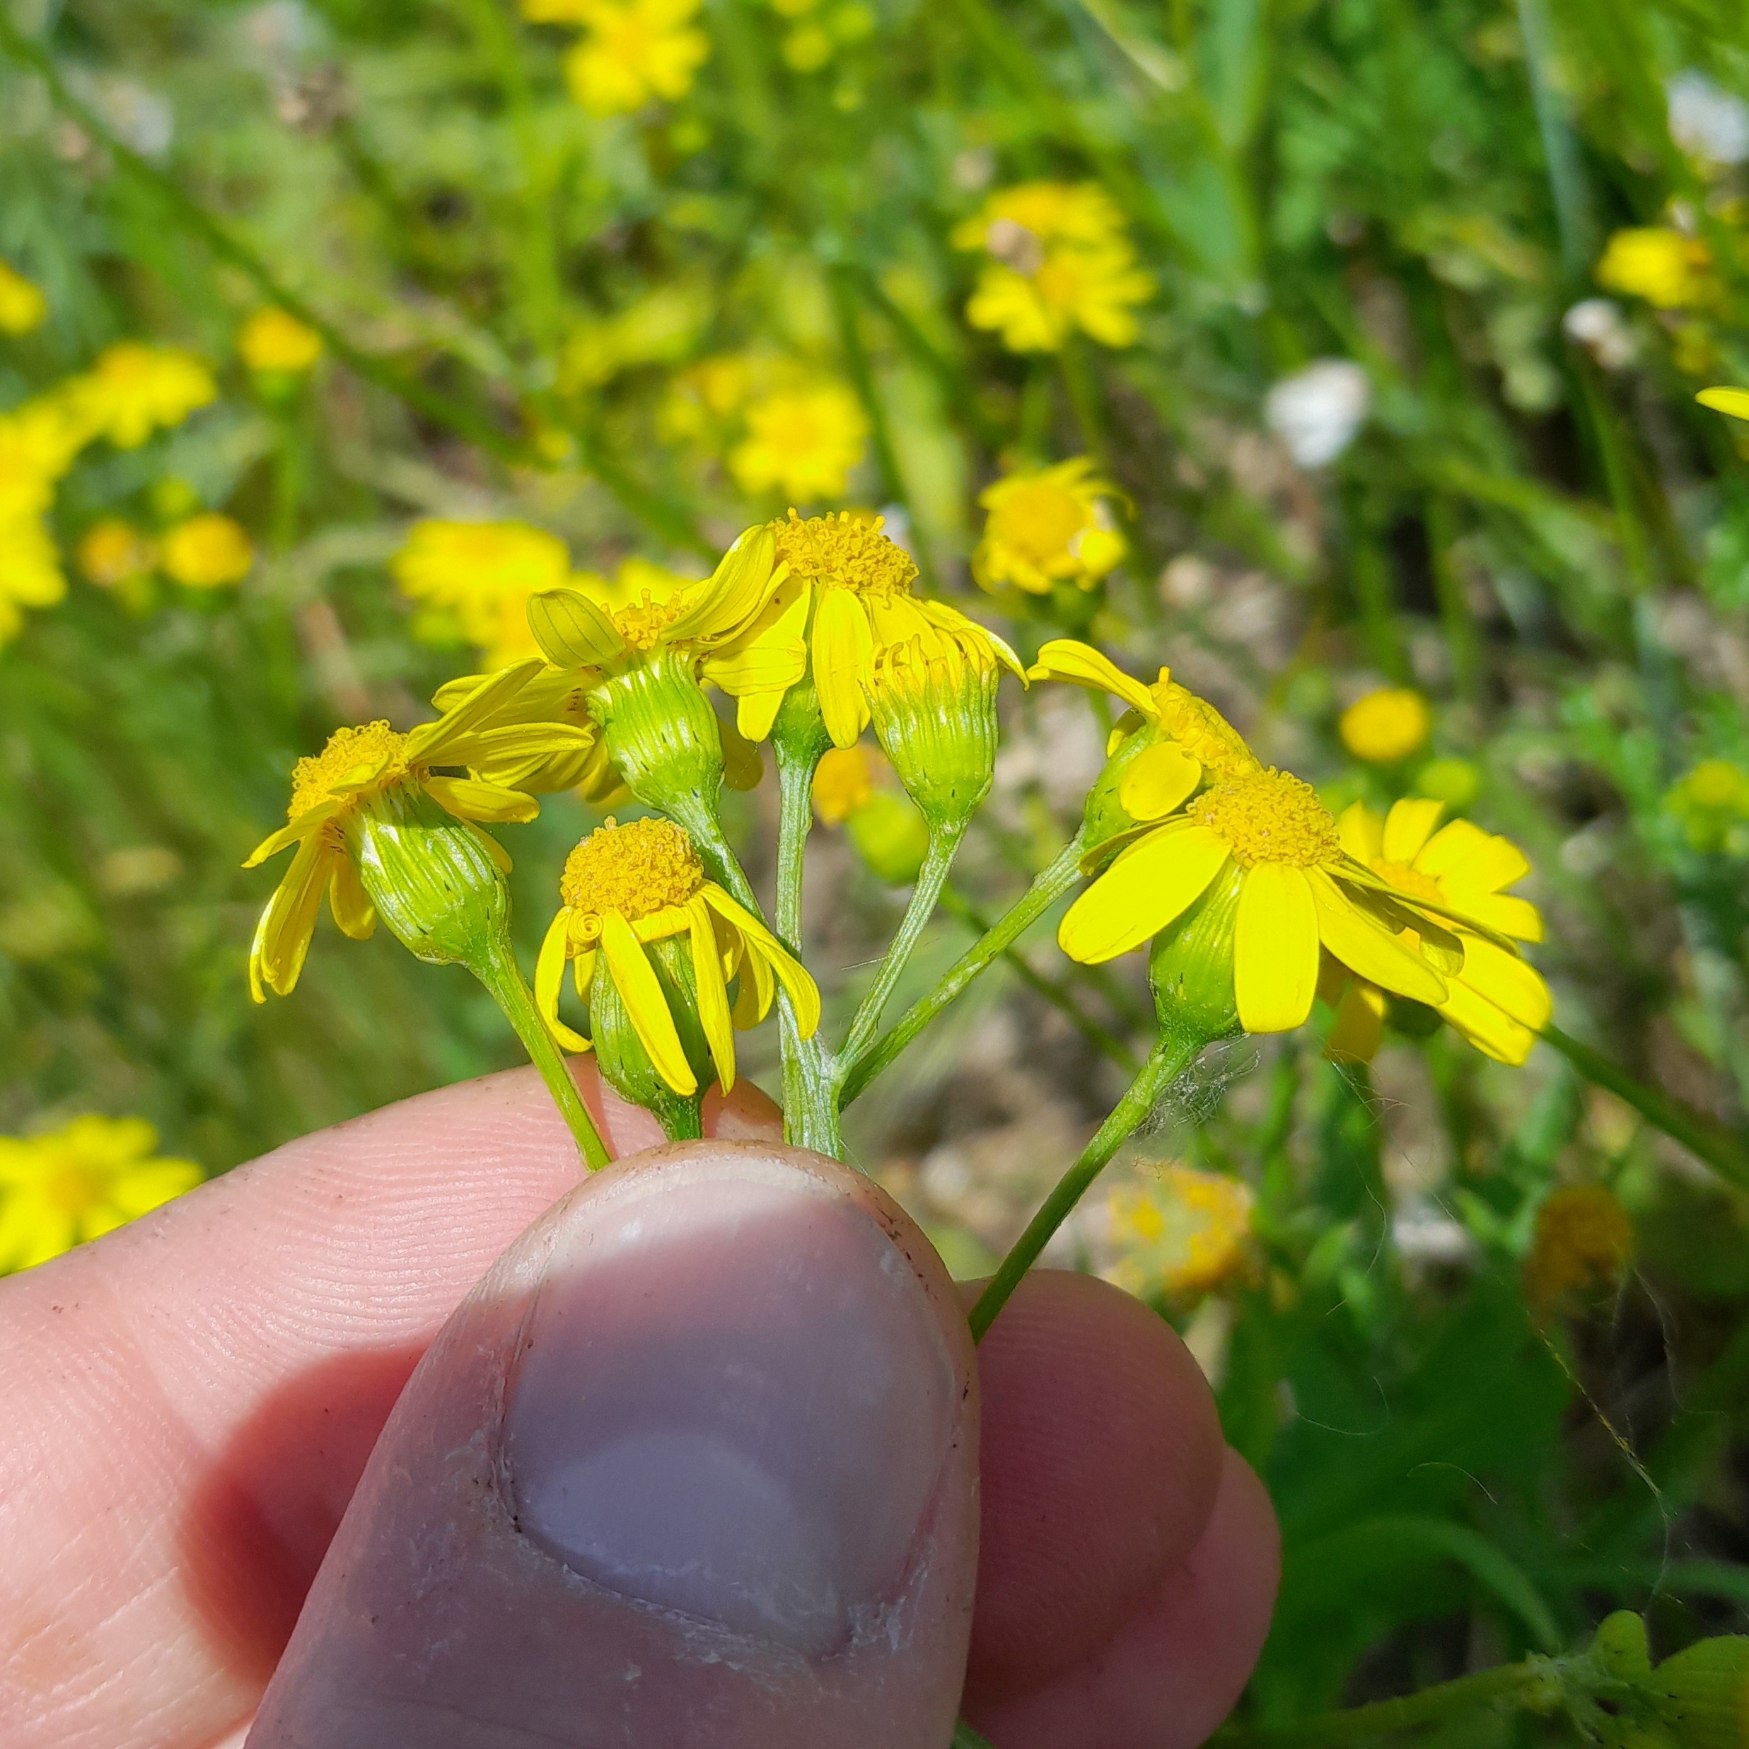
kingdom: Plantae
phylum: Tracheophyta
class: Magnoliopsida
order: Asterales
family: Asteraceae
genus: Senecio
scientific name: Senecio squalidus
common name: Italiensk brandbæger
